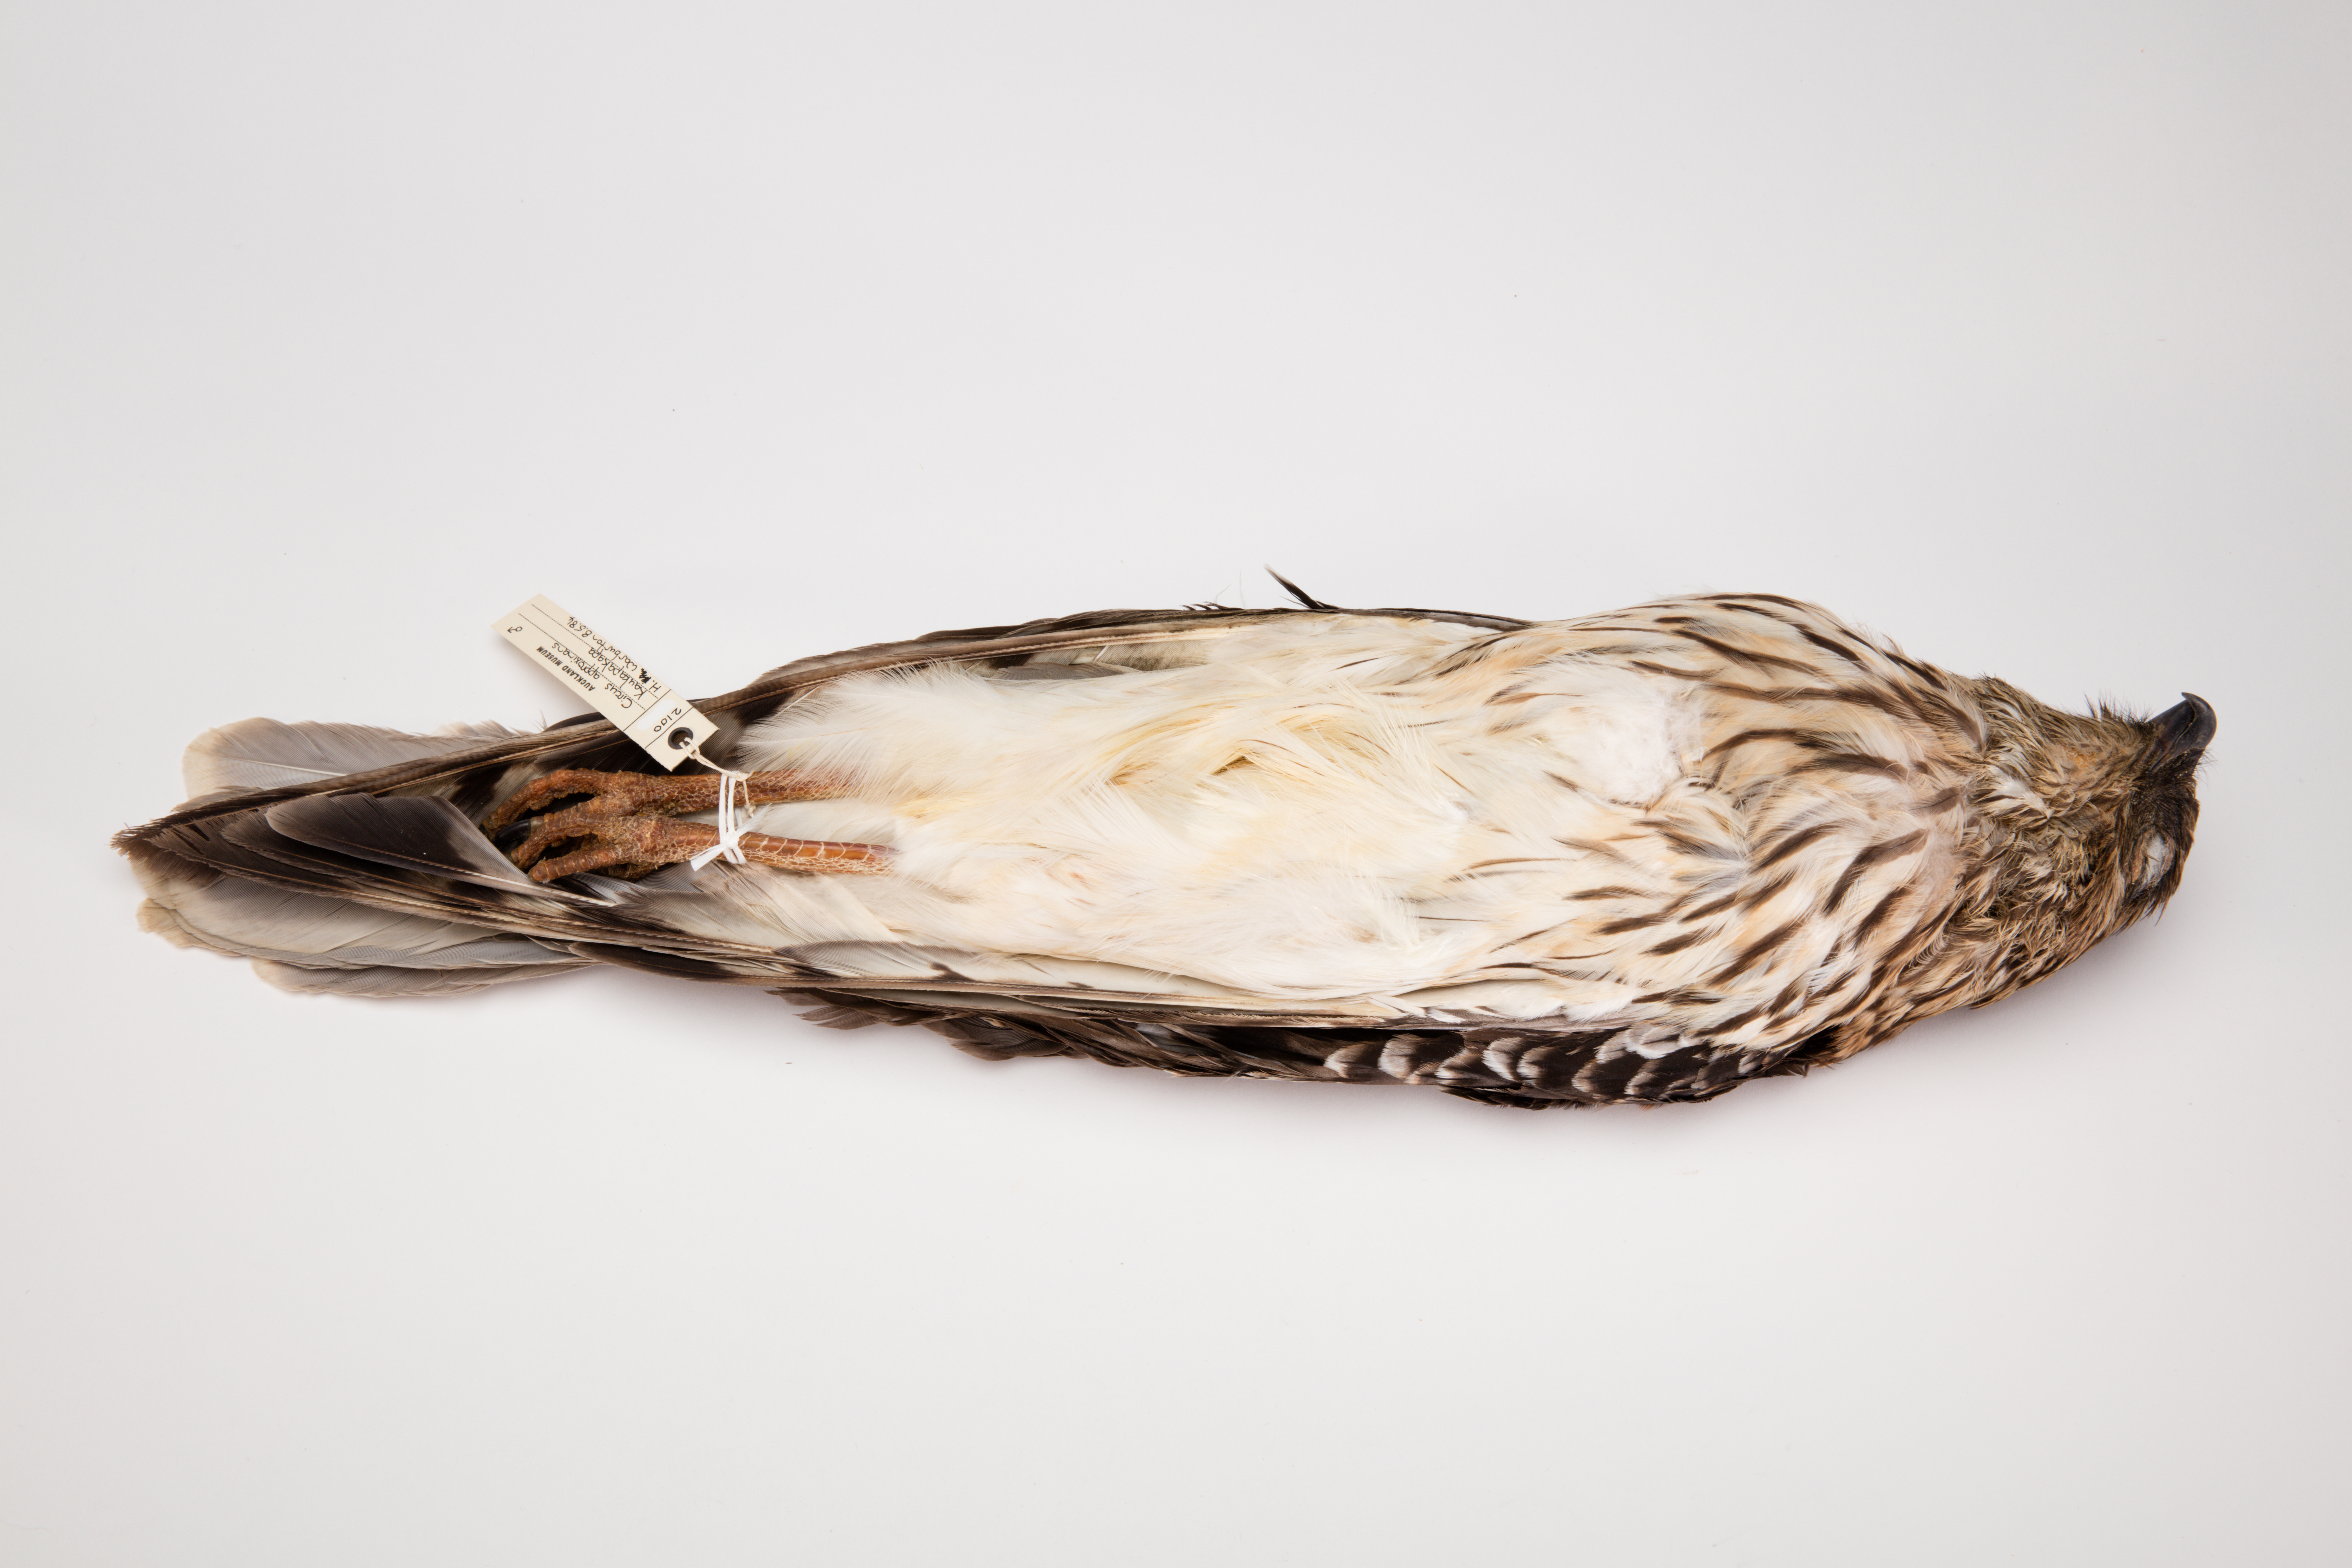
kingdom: Animalia
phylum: Chordata
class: Aves
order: Accipitriformes
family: Accipitridae
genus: Circus
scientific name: Circus approximans
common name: Swamp harrier
